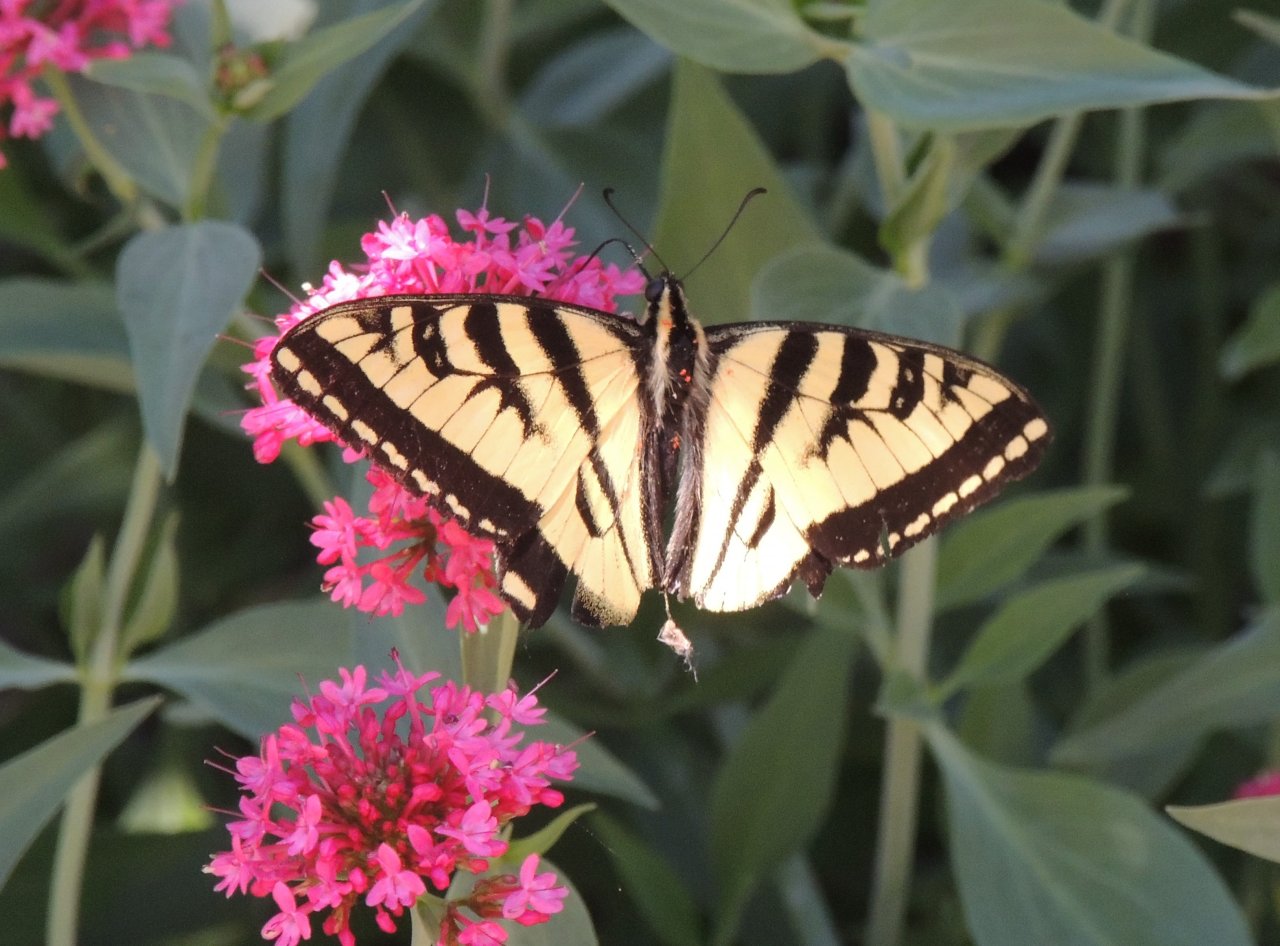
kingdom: Animalia
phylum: Arthropoda
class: Insecta
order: Lepidoptera
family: Papilionidae
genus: Pterourus
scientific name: Pterourus rutulus
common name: Western Tiger Swallowtail
